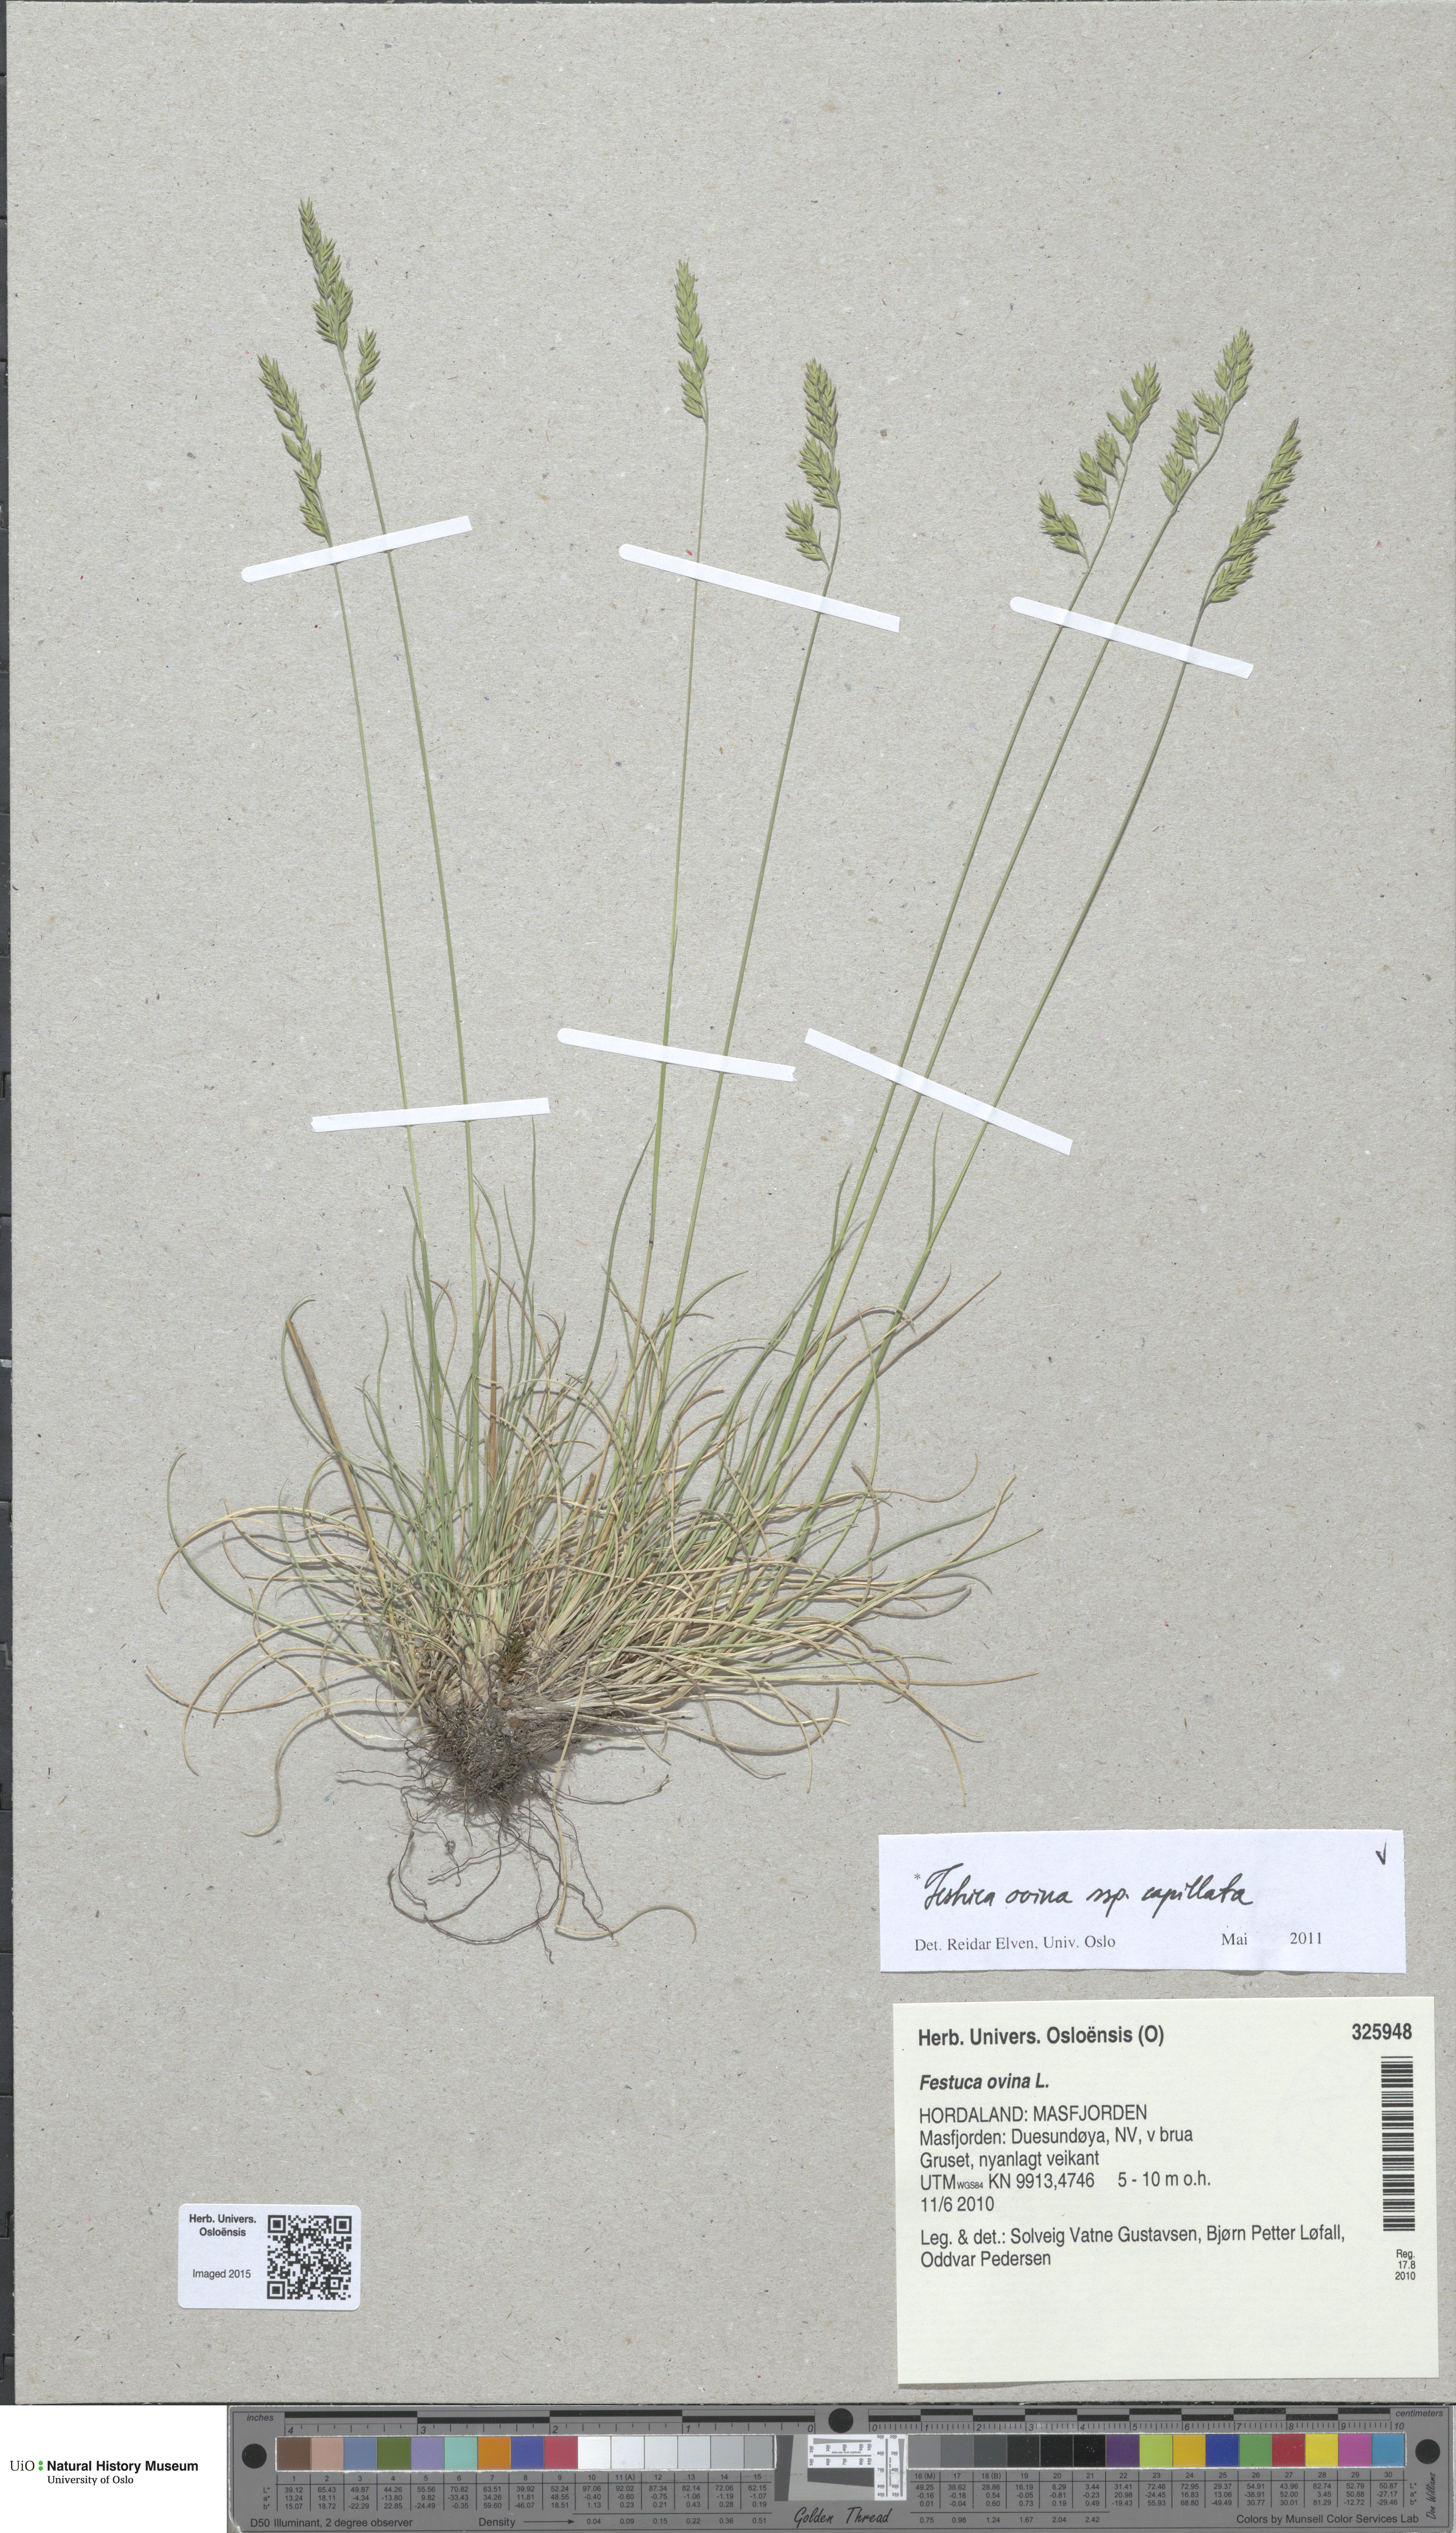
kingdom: Plantae
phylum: Tracheophyta
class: Liliopsida
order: Poales
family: Poaceae
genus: Festuca
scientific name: Festuca filiformis
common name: Fine-leaved sheep's-fescue
